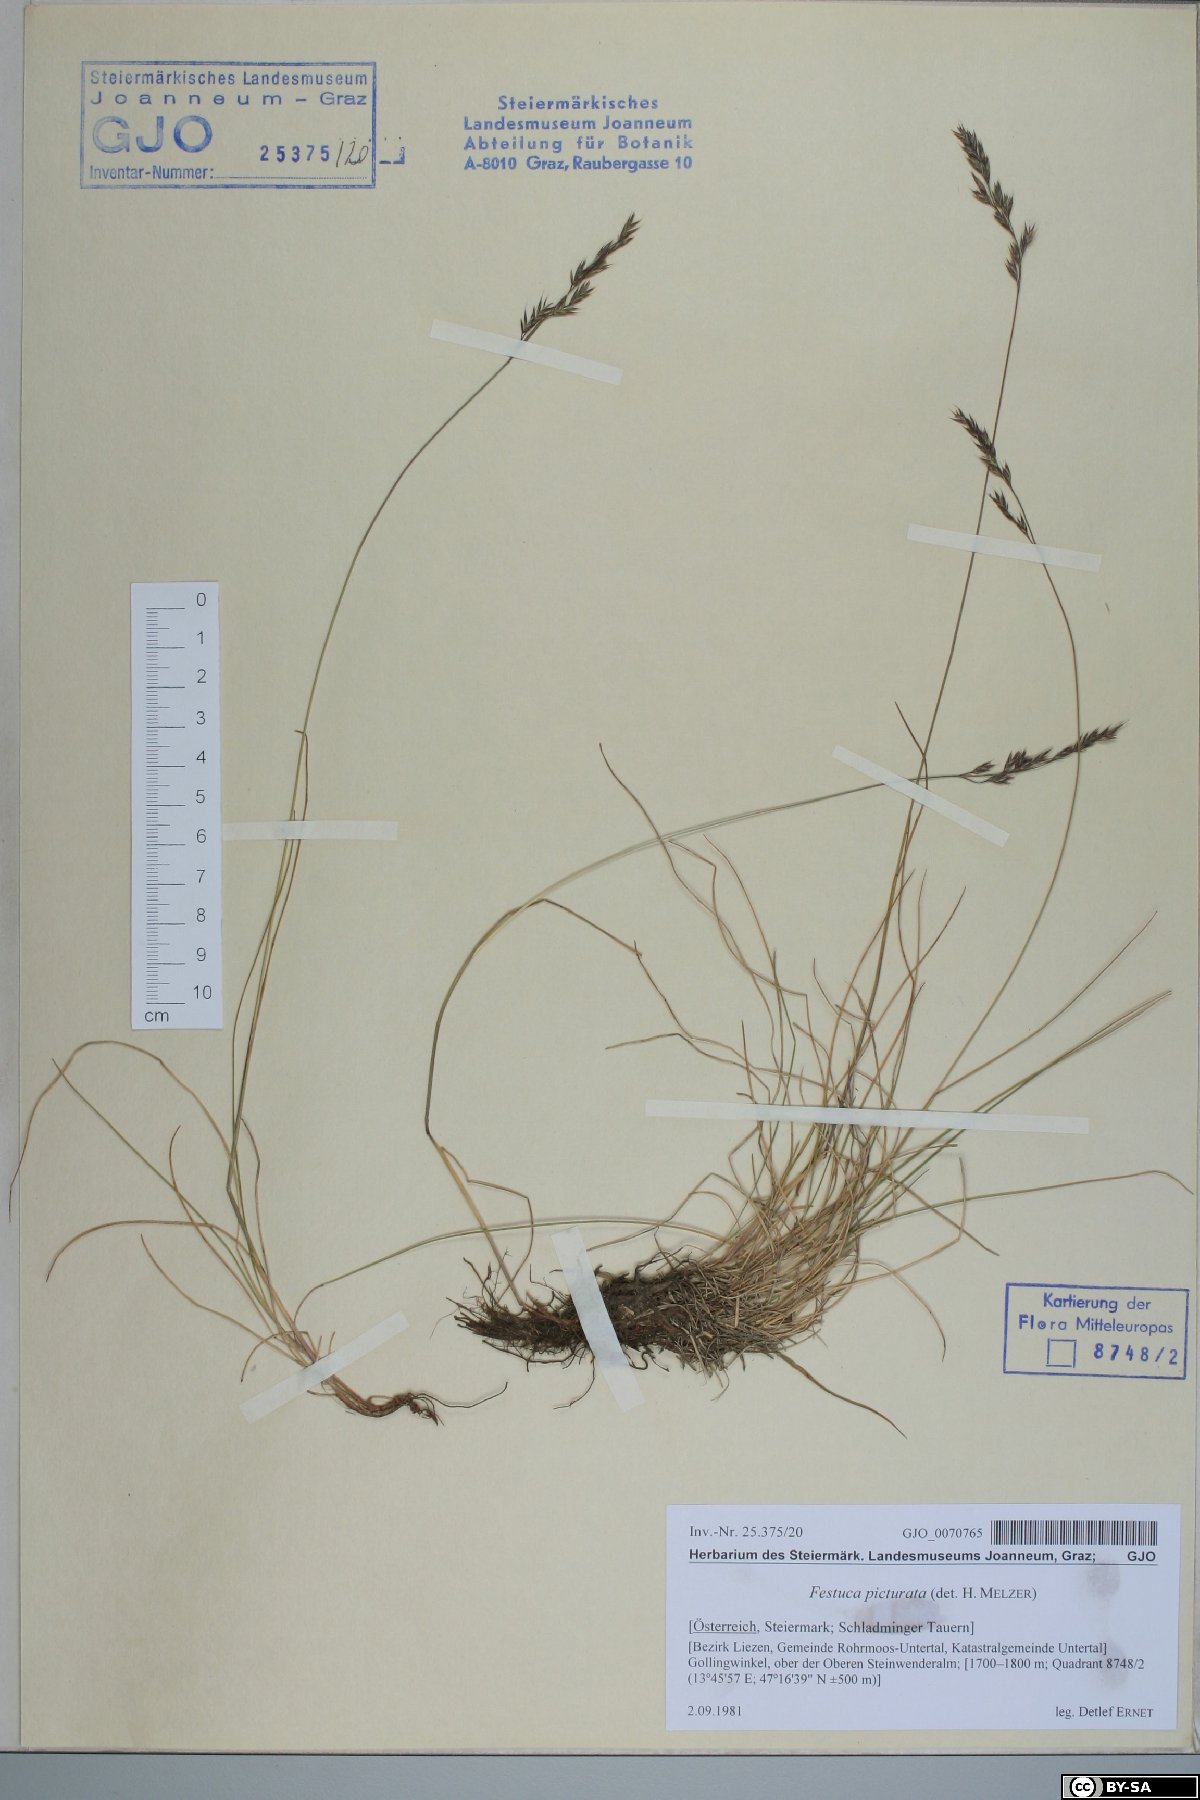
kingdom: Plantae
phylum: Tracheophyta
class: Liliopsida
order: Poales
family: Poaceae
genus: Festuca
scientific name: Festuca picturata
